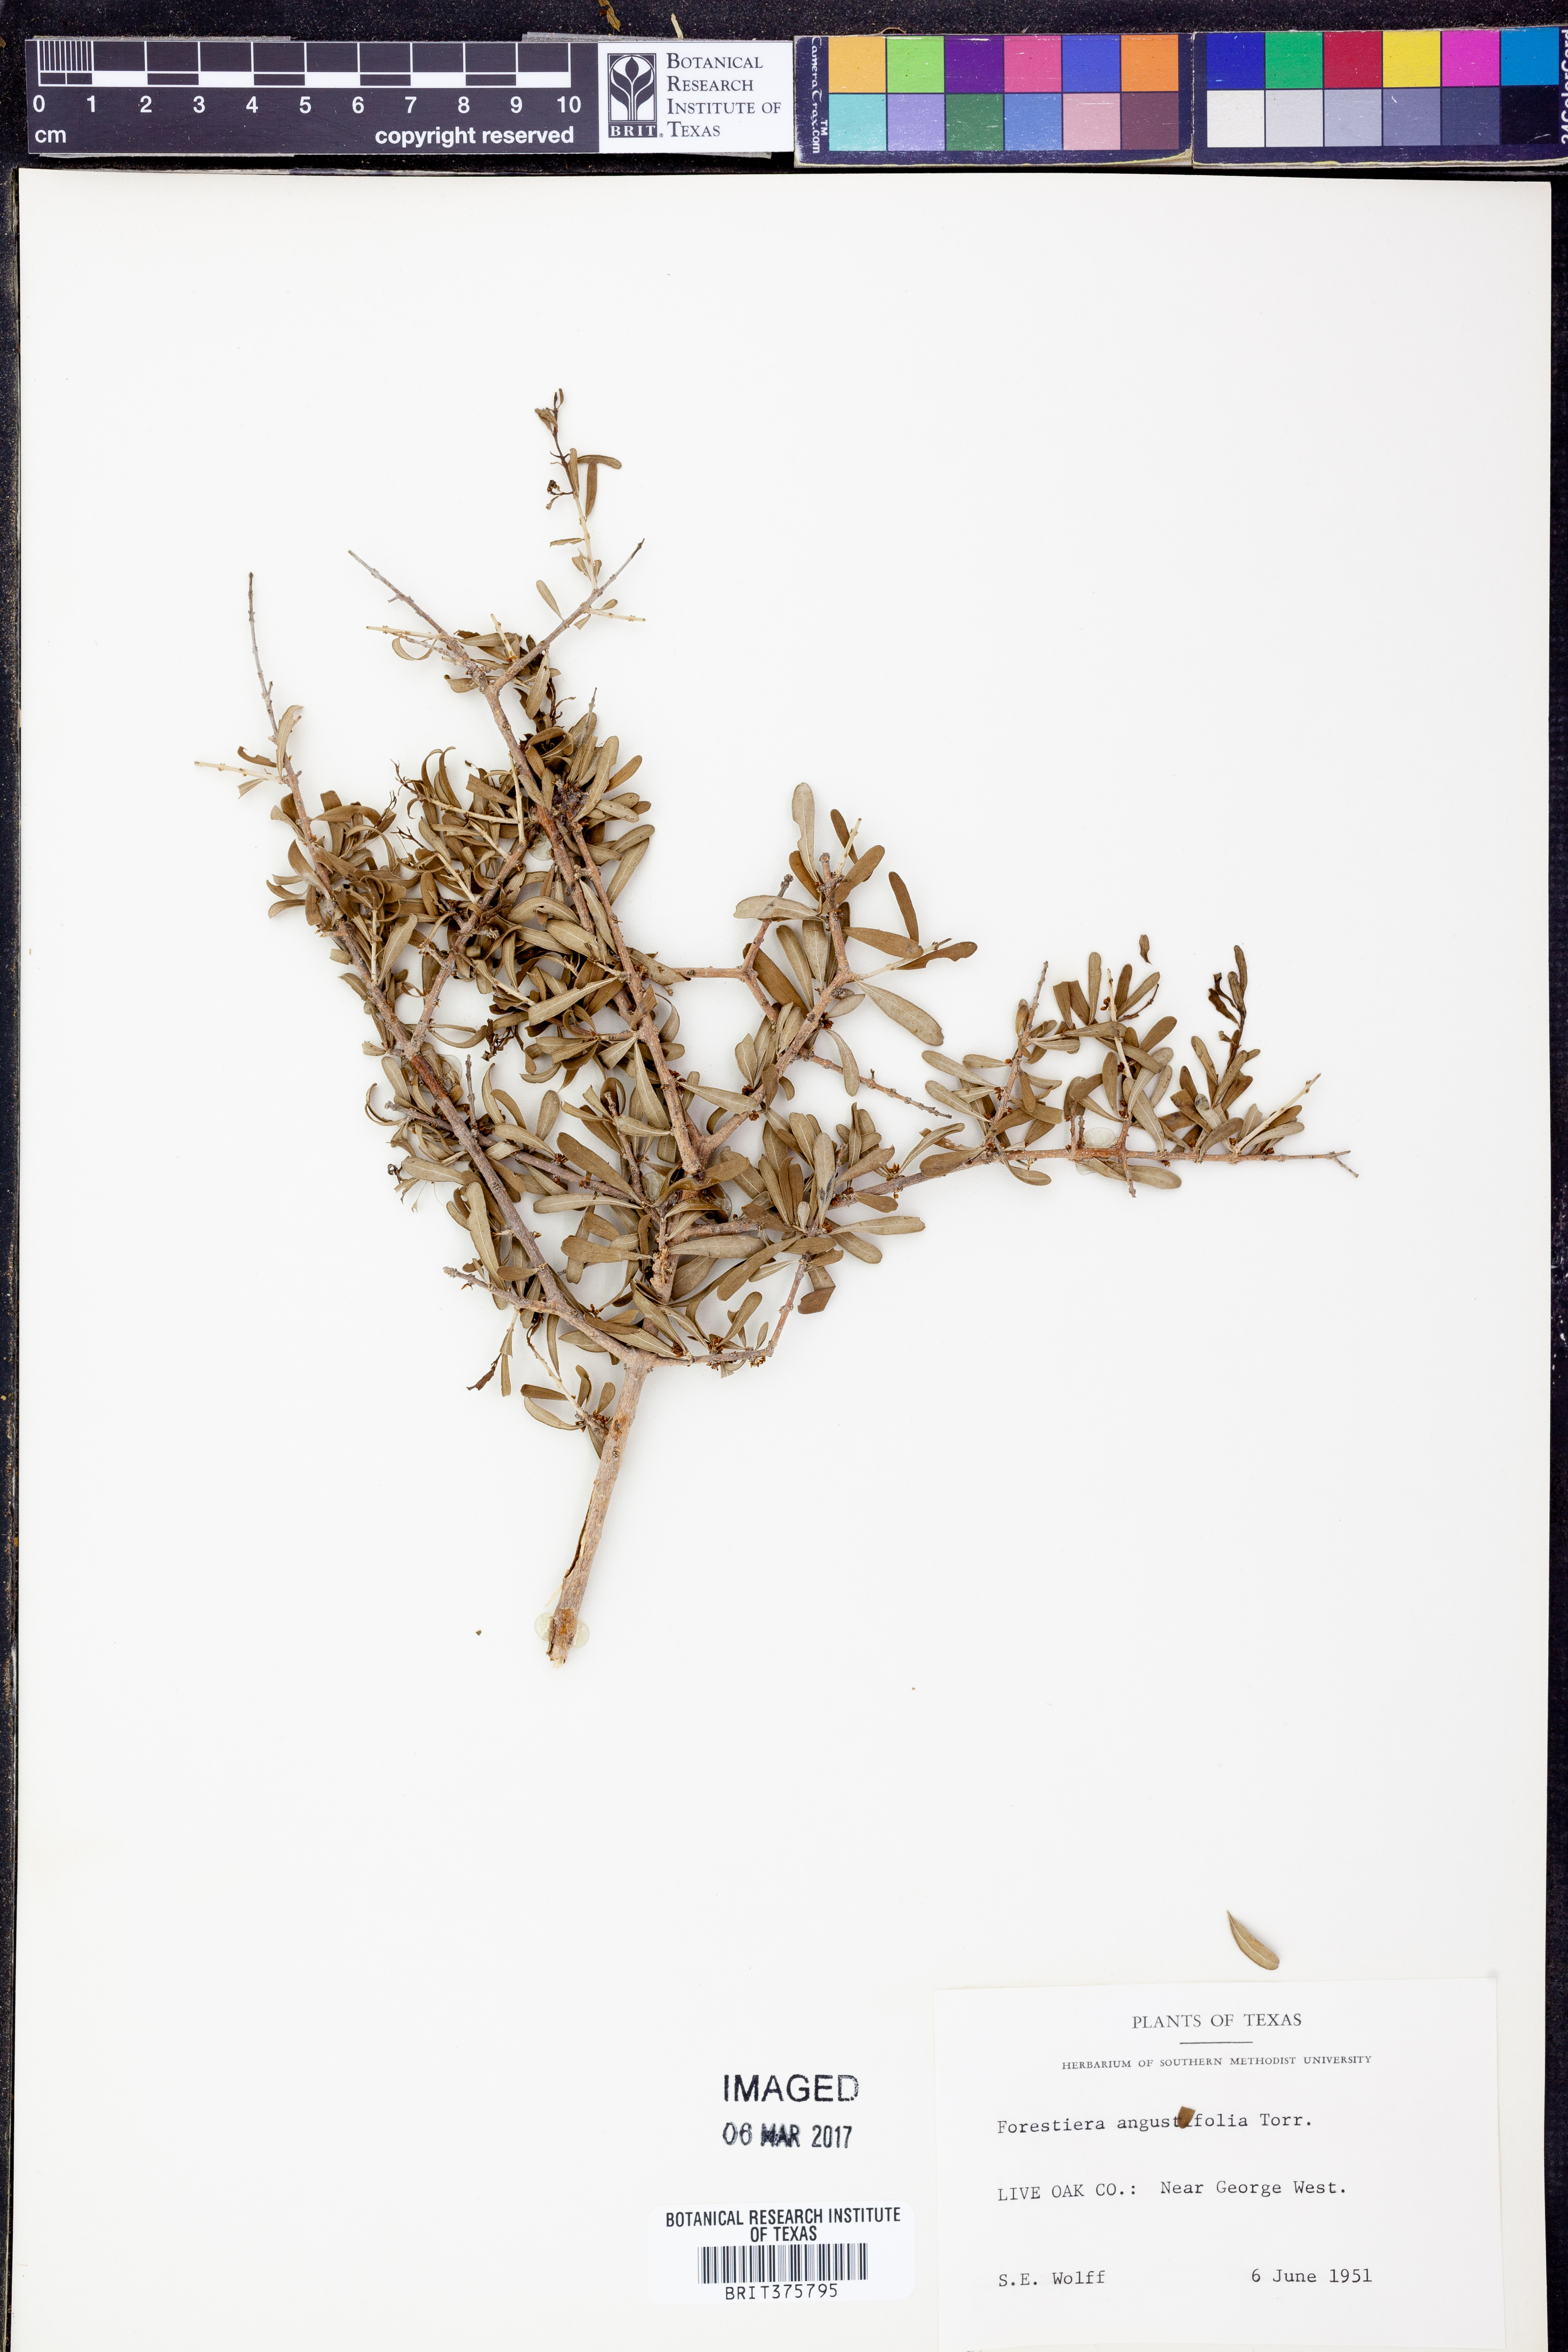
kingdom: Plantae
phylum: Tracheophyta
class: Magnoliopsida
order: Lamiales
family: Oleaceae
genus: Forestiera
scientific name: Forestiera angustifolia
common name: Elbowbush
